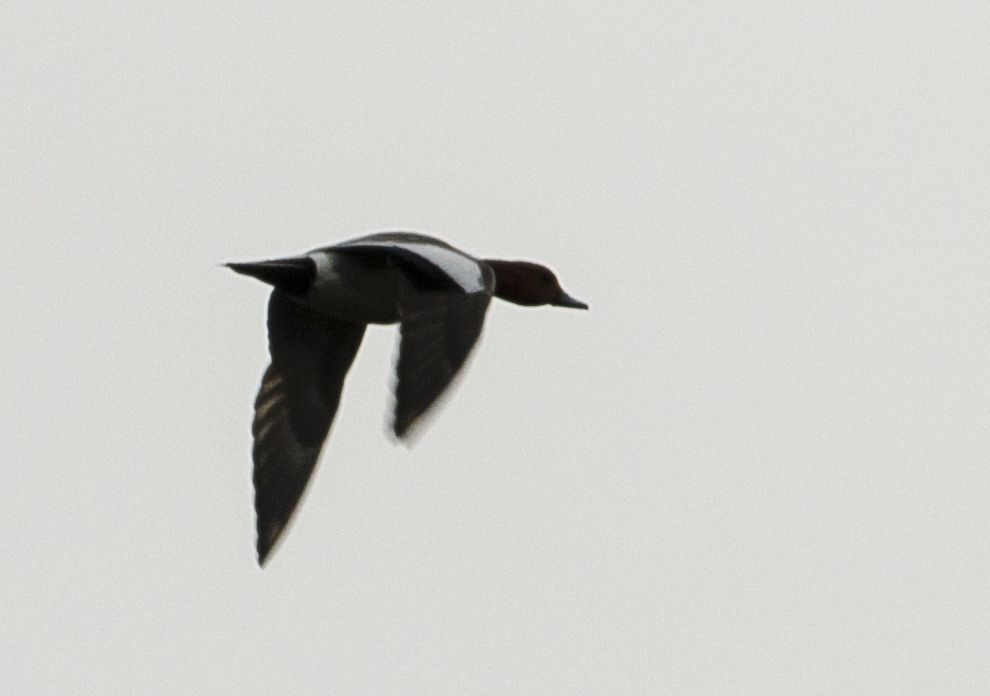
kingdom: Animalia
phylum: Chordata
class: Aves
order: Anseriformes
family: Anatidae
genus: Mareca
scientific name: Mareca penelope
